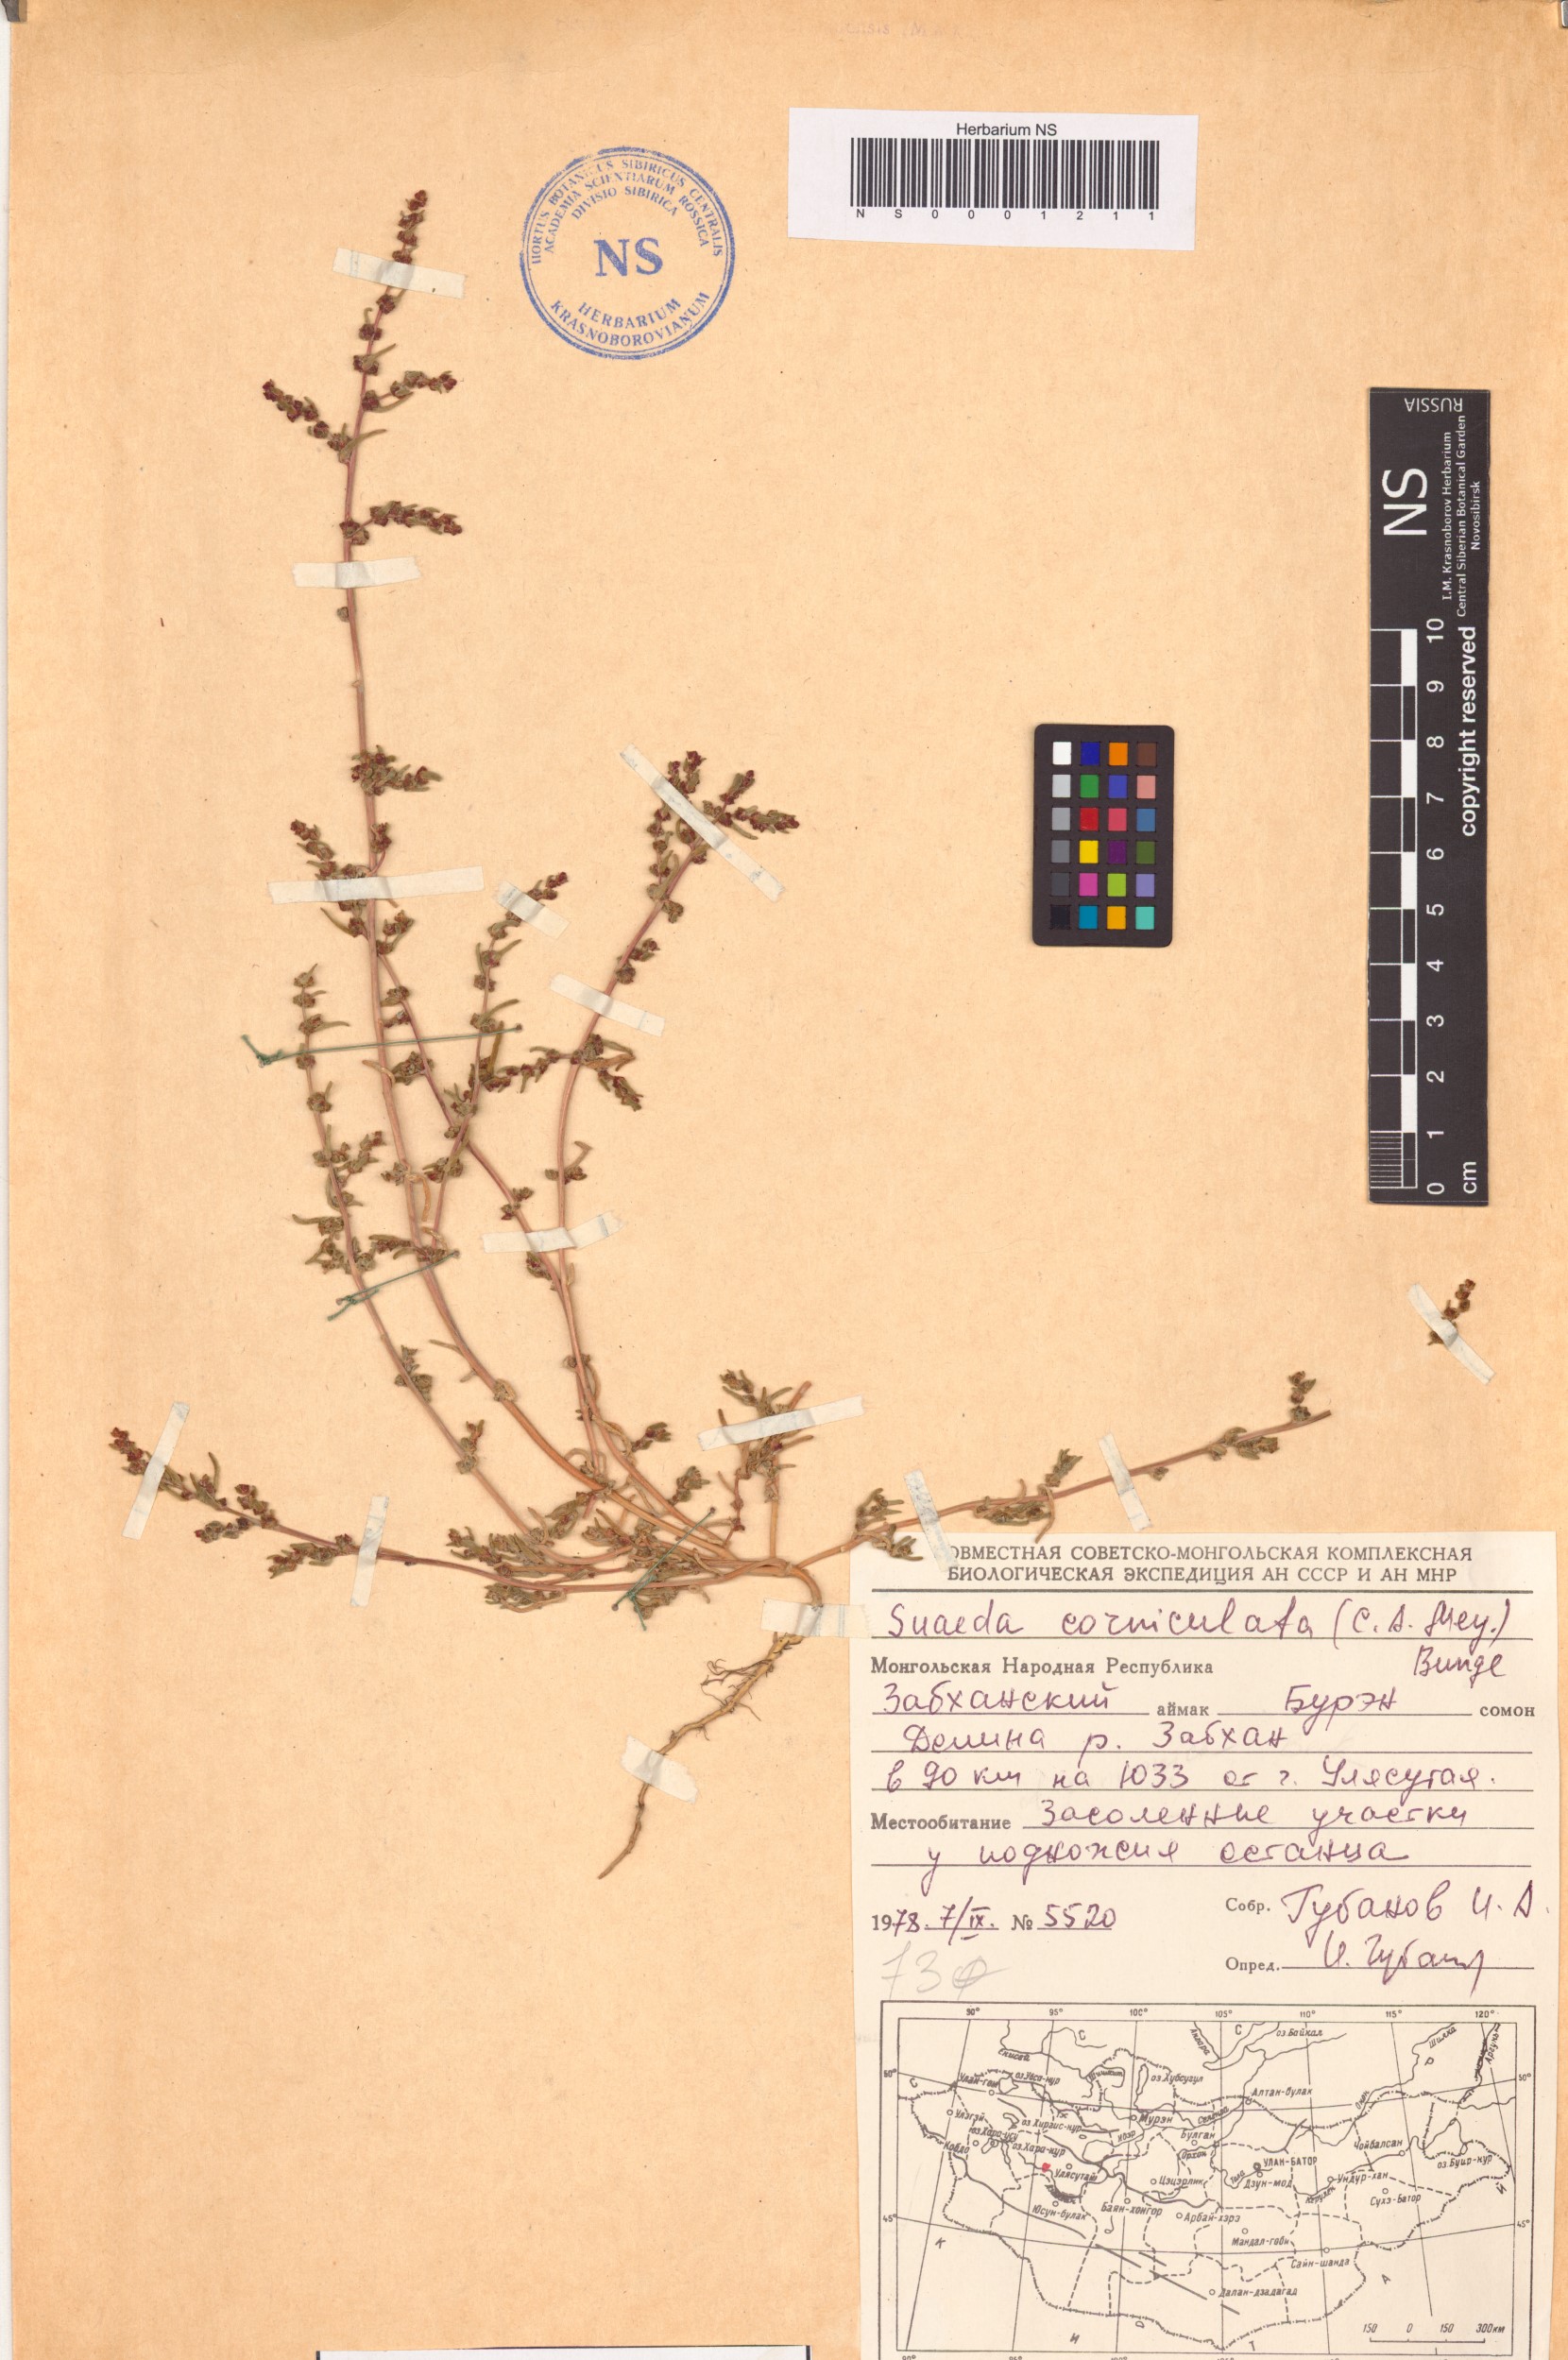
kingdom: Plantae
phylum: Tracheophyta
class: Magnoliopsida
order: Caryophyllales
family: Amaranthaceae
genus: Suaeda
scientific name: Suaeda corniculata
